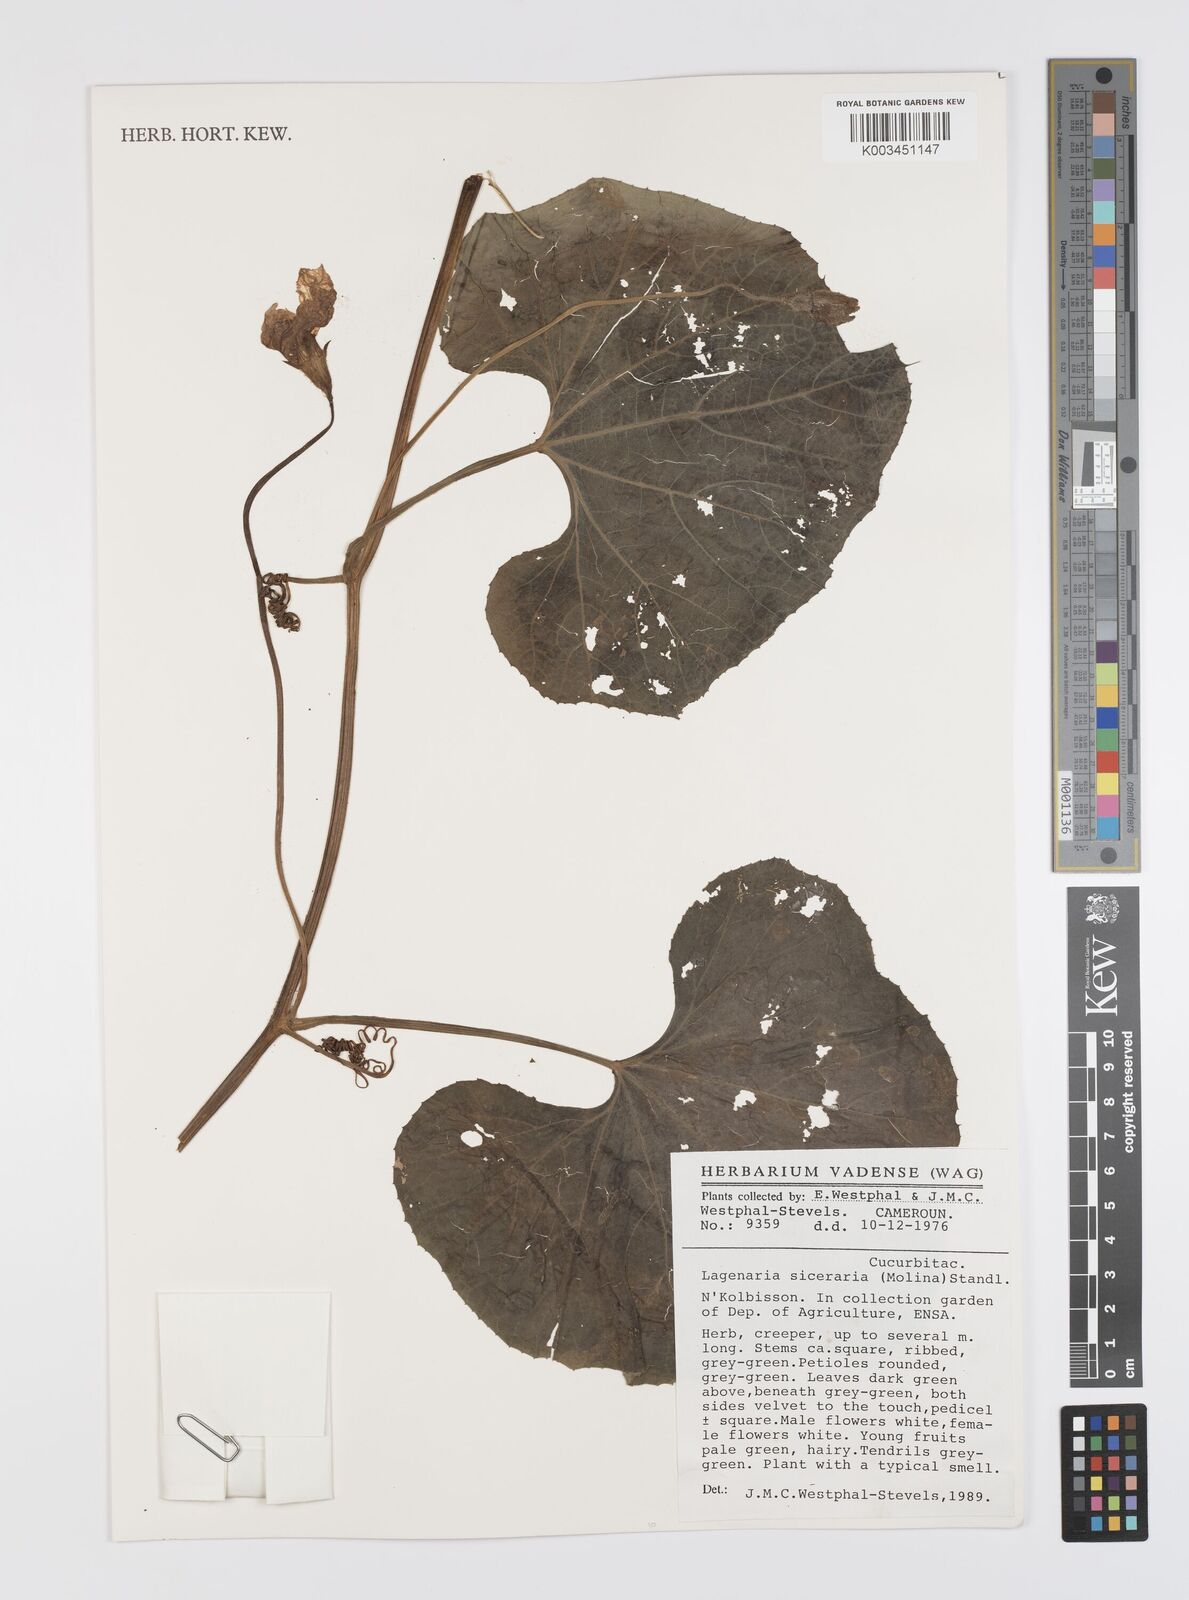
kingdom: Plantae
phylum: Tracheophyta
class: Magnoliopsida
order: Cucurbitales
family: Cucurbitaceae
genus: Lagenaria
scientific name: Lagenaria siceraria
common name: Bottle gourd
